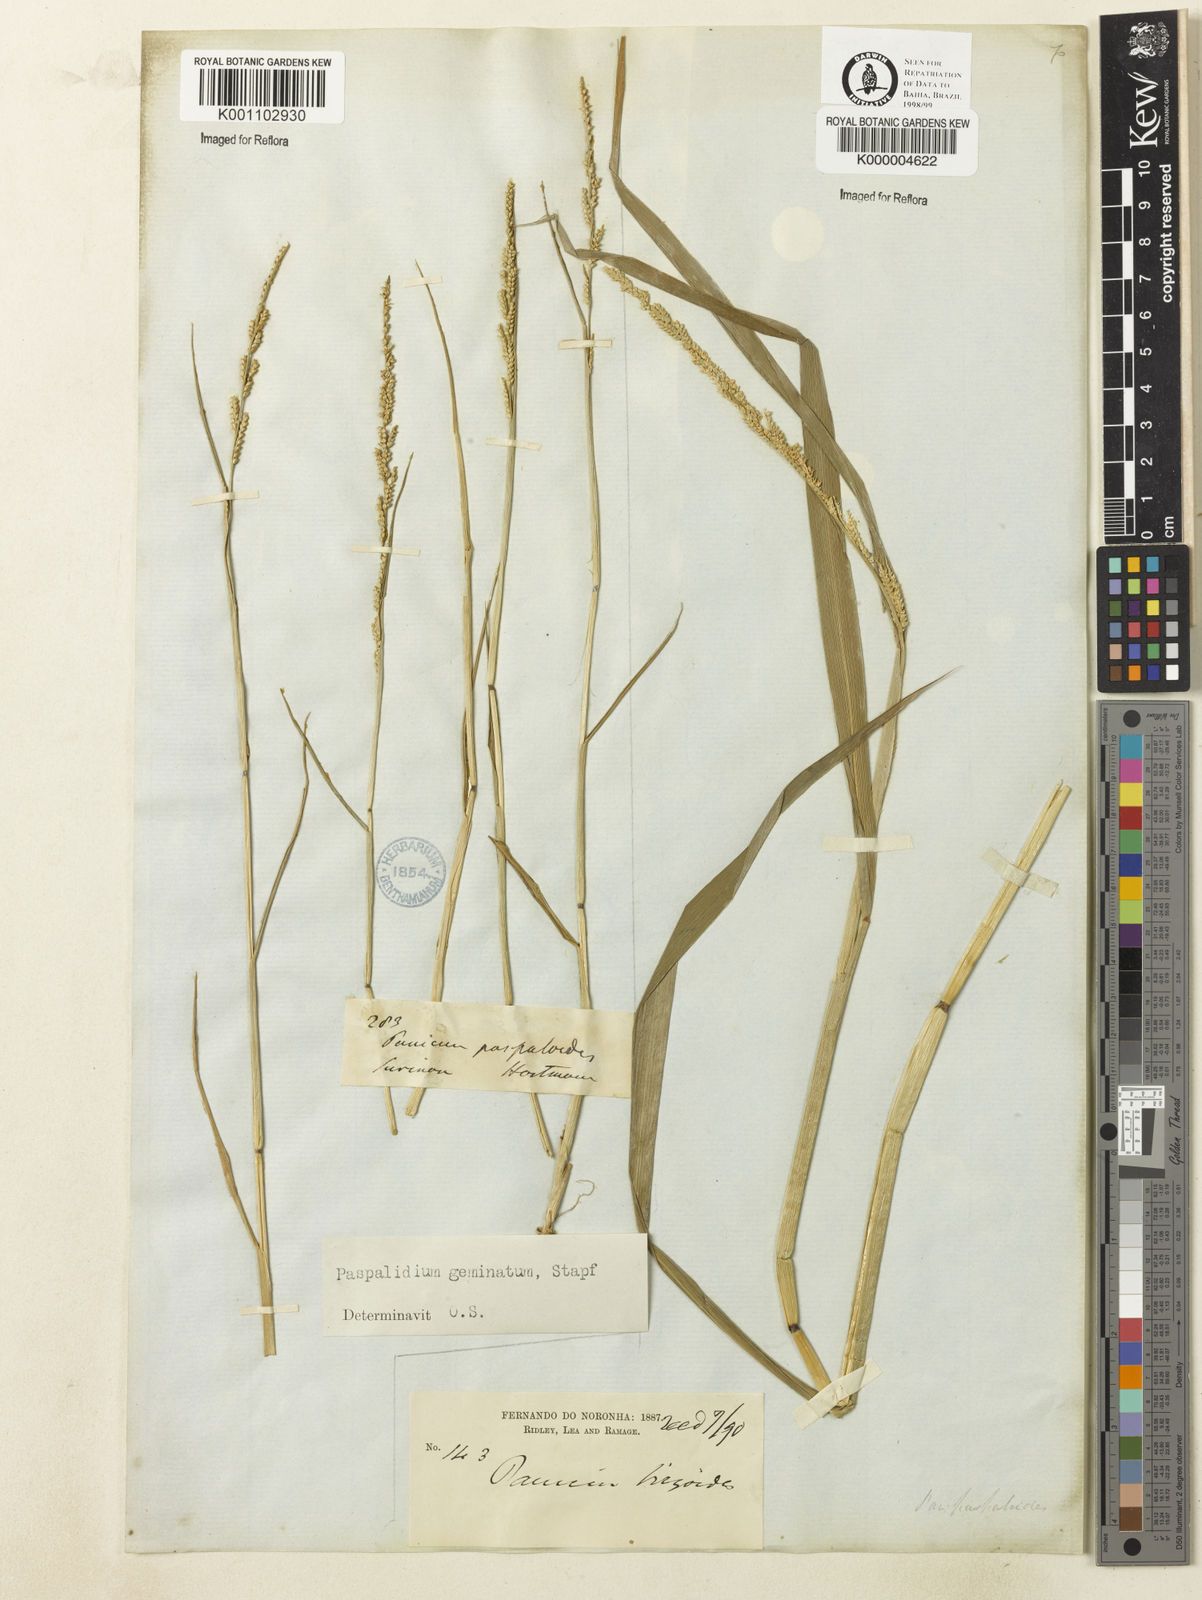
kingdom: Plantae
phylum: Tracheophyta
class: Liliopsida
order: Poales
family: Poaceae
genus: Setaria
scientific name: Setaria geminata
